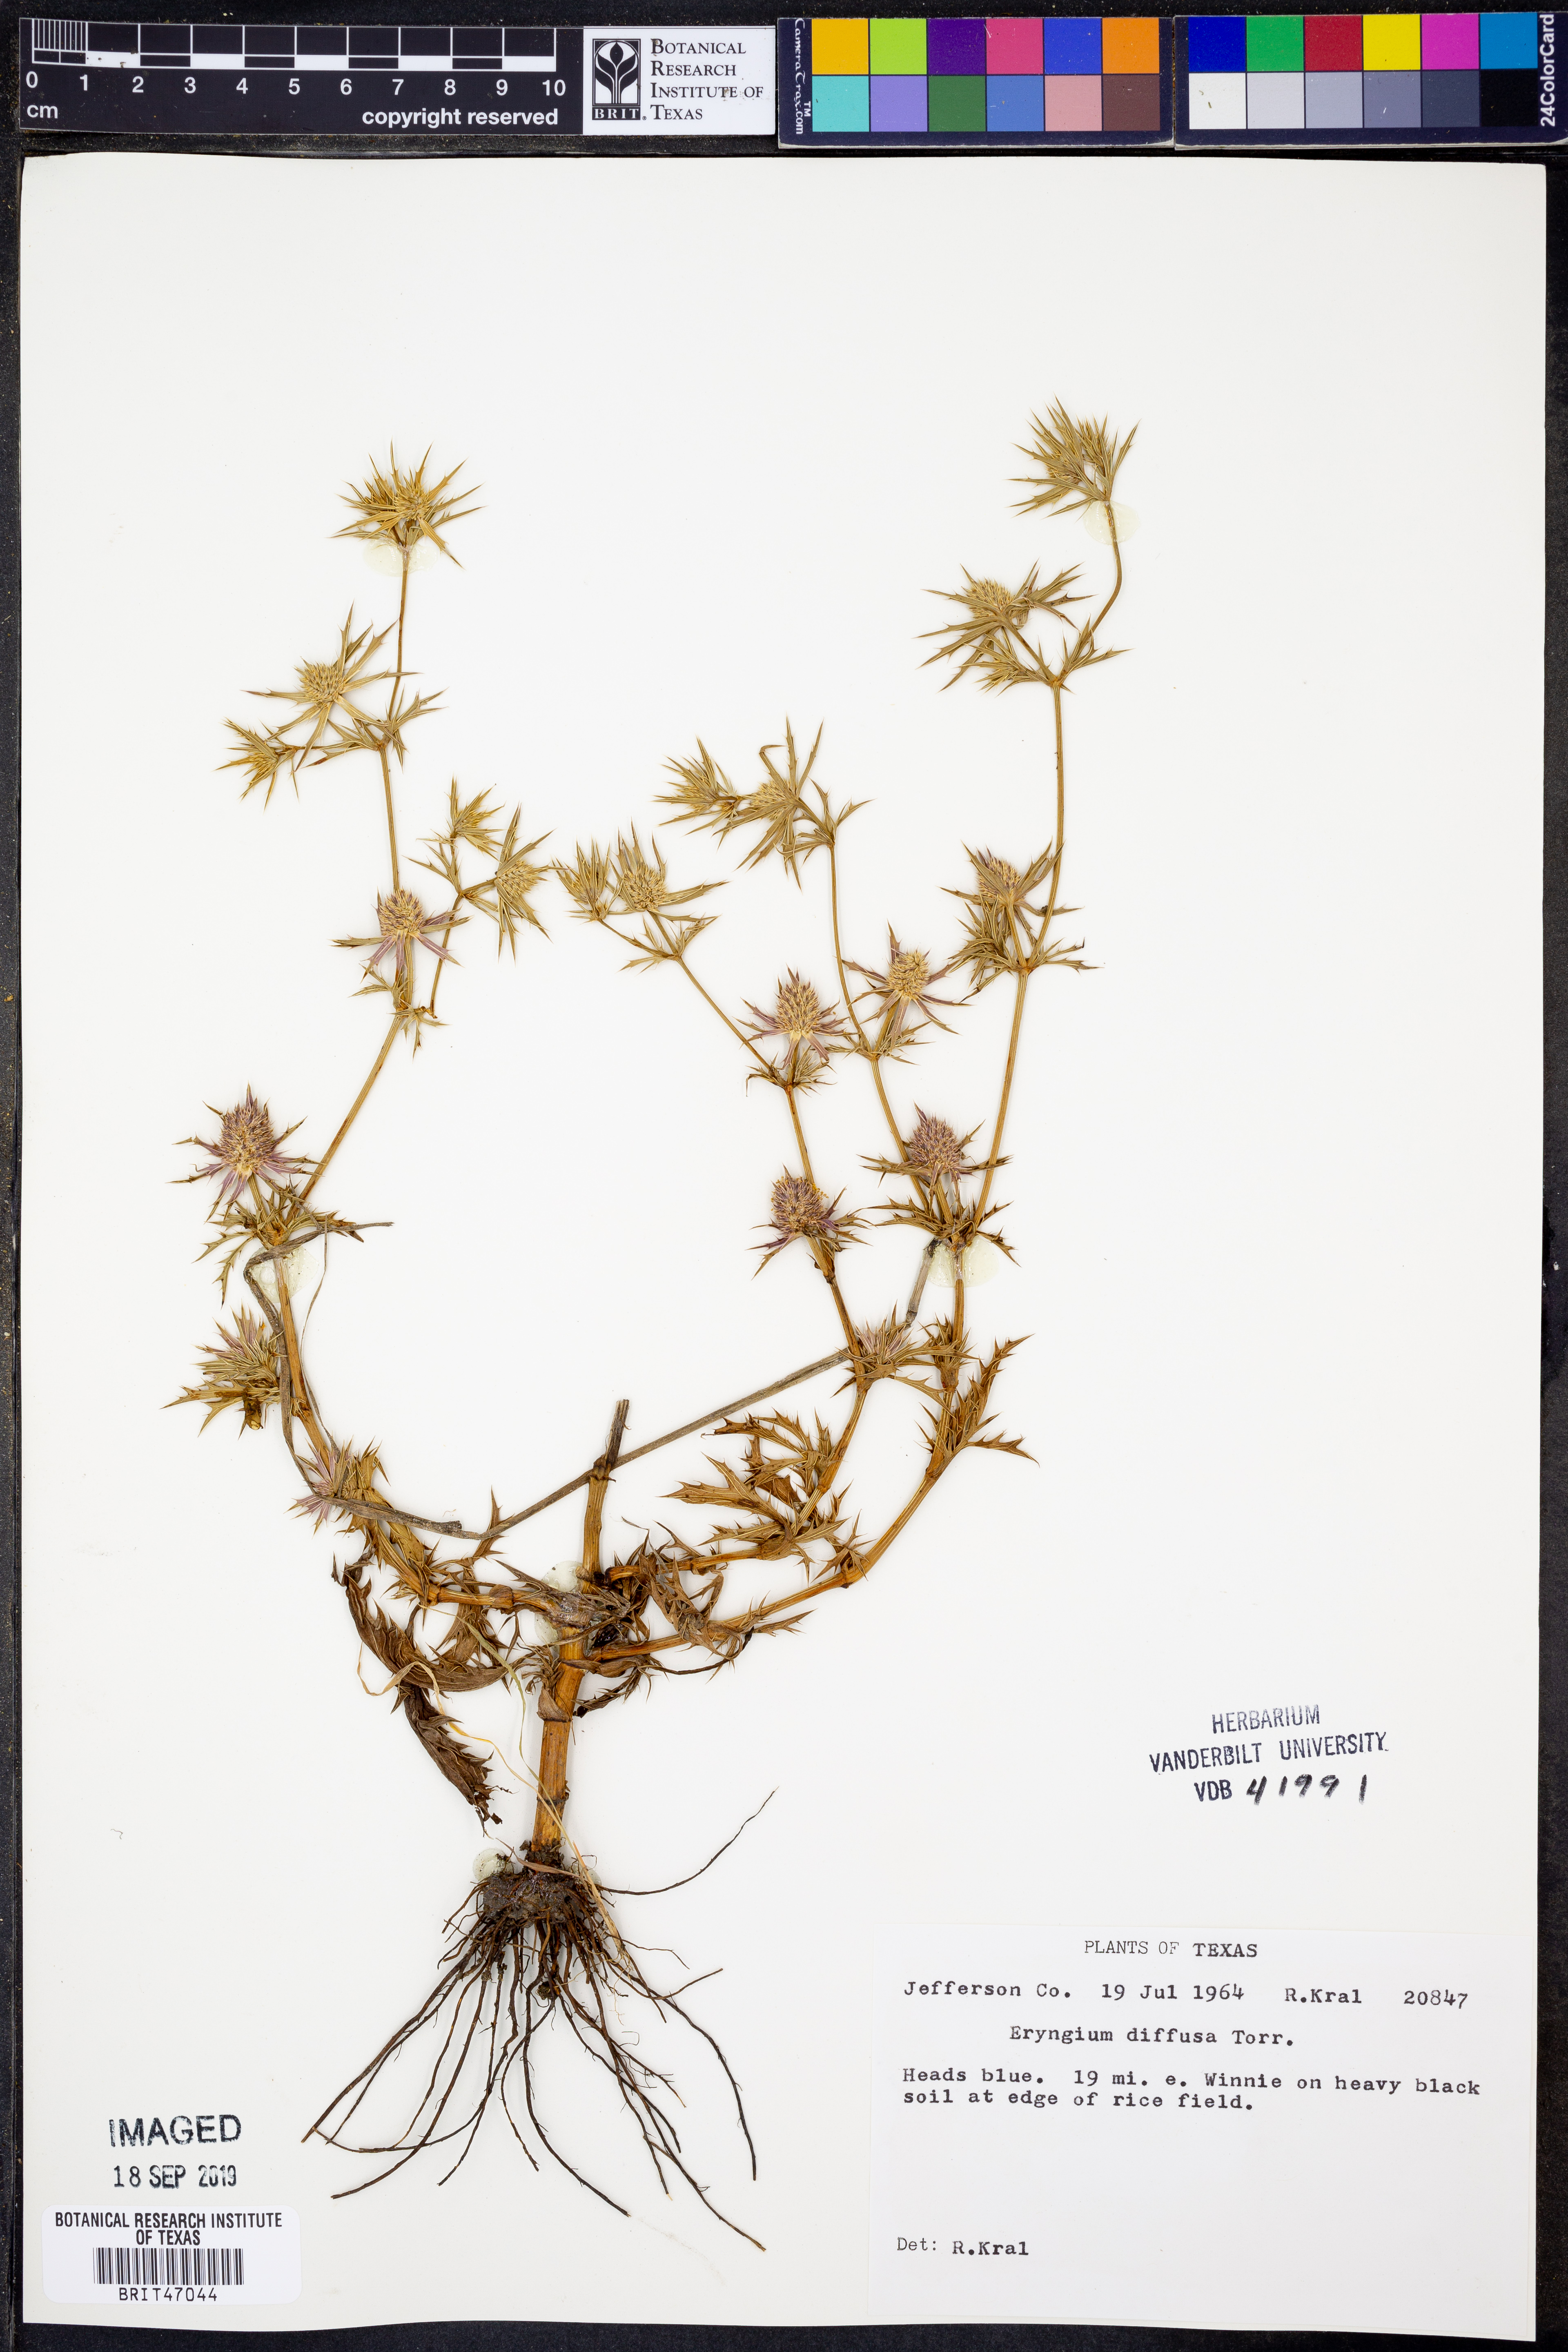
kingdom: Plantae
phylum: Tracheophyta
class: Magnoliopsida
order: Apiales
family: Apiaceae
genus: Eryngium
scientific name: Eryngium diffusum
